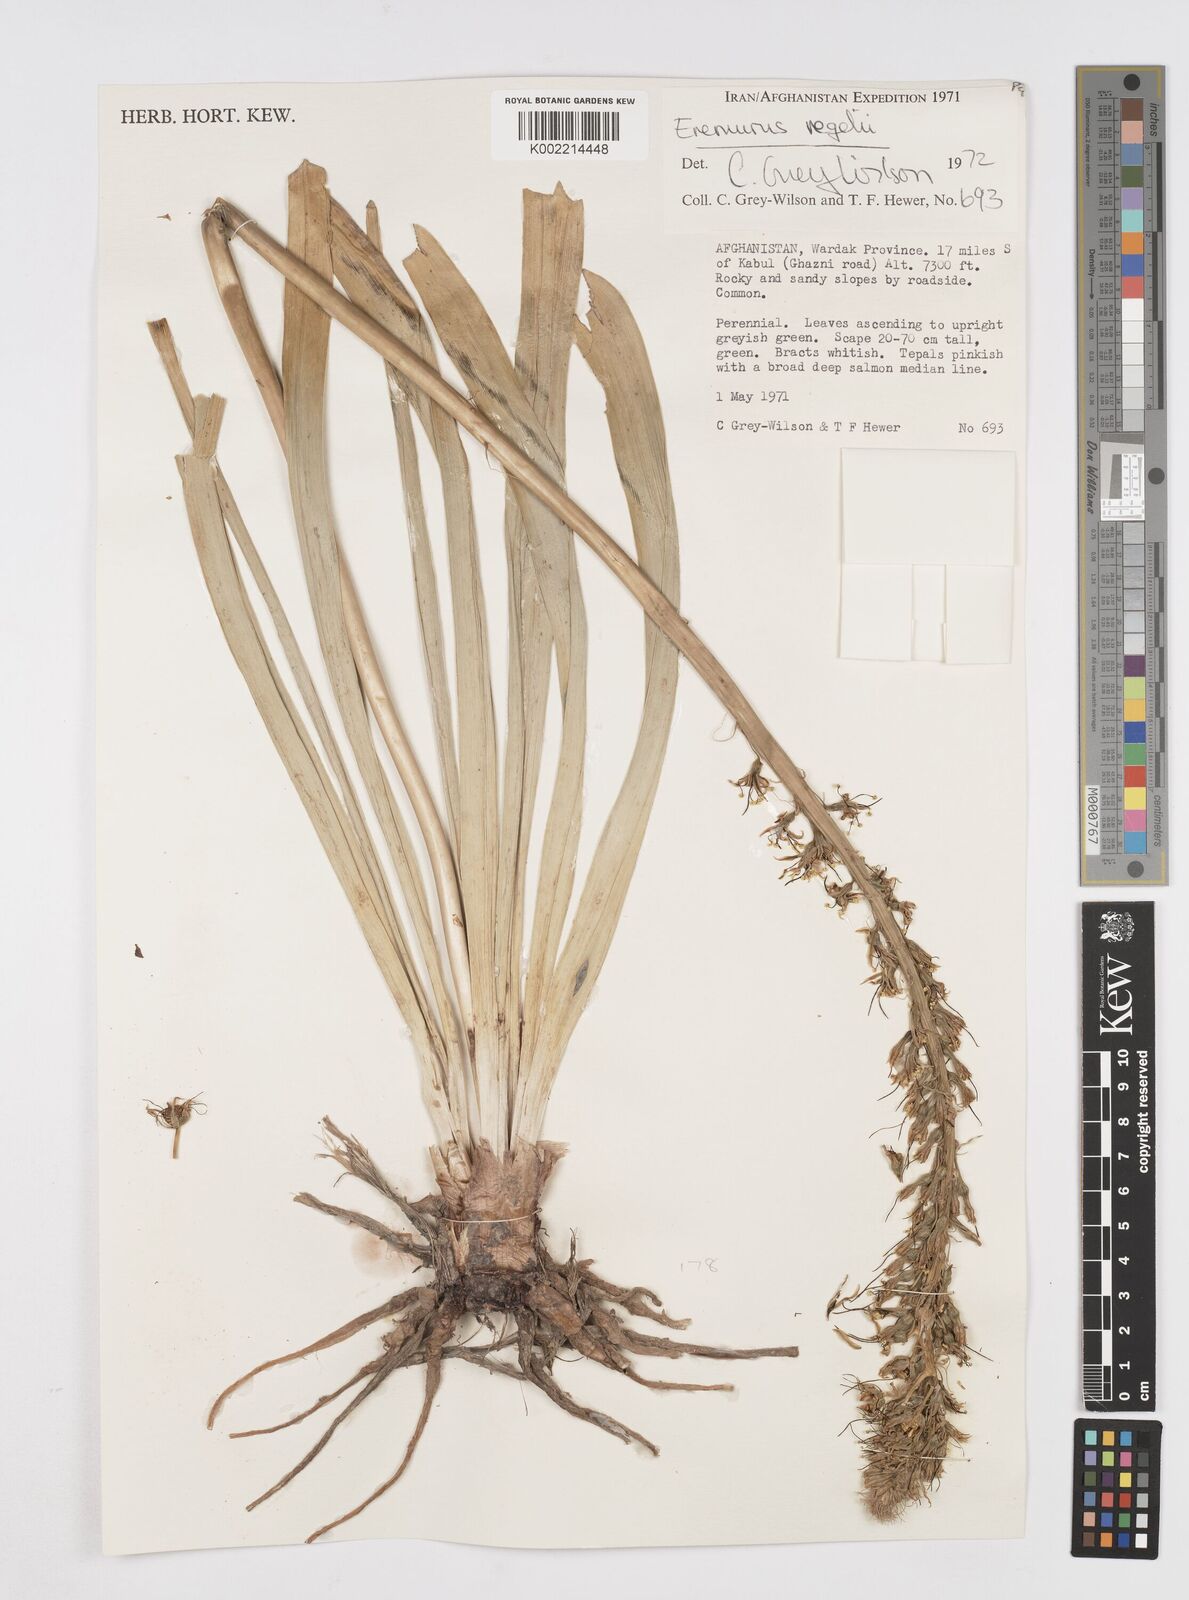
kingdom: Plantae
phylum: Tracheophyta
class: Liliopsida
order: Asparagales
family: Asphodelaceae
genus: Eremurus
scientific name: Eremurus regelii
